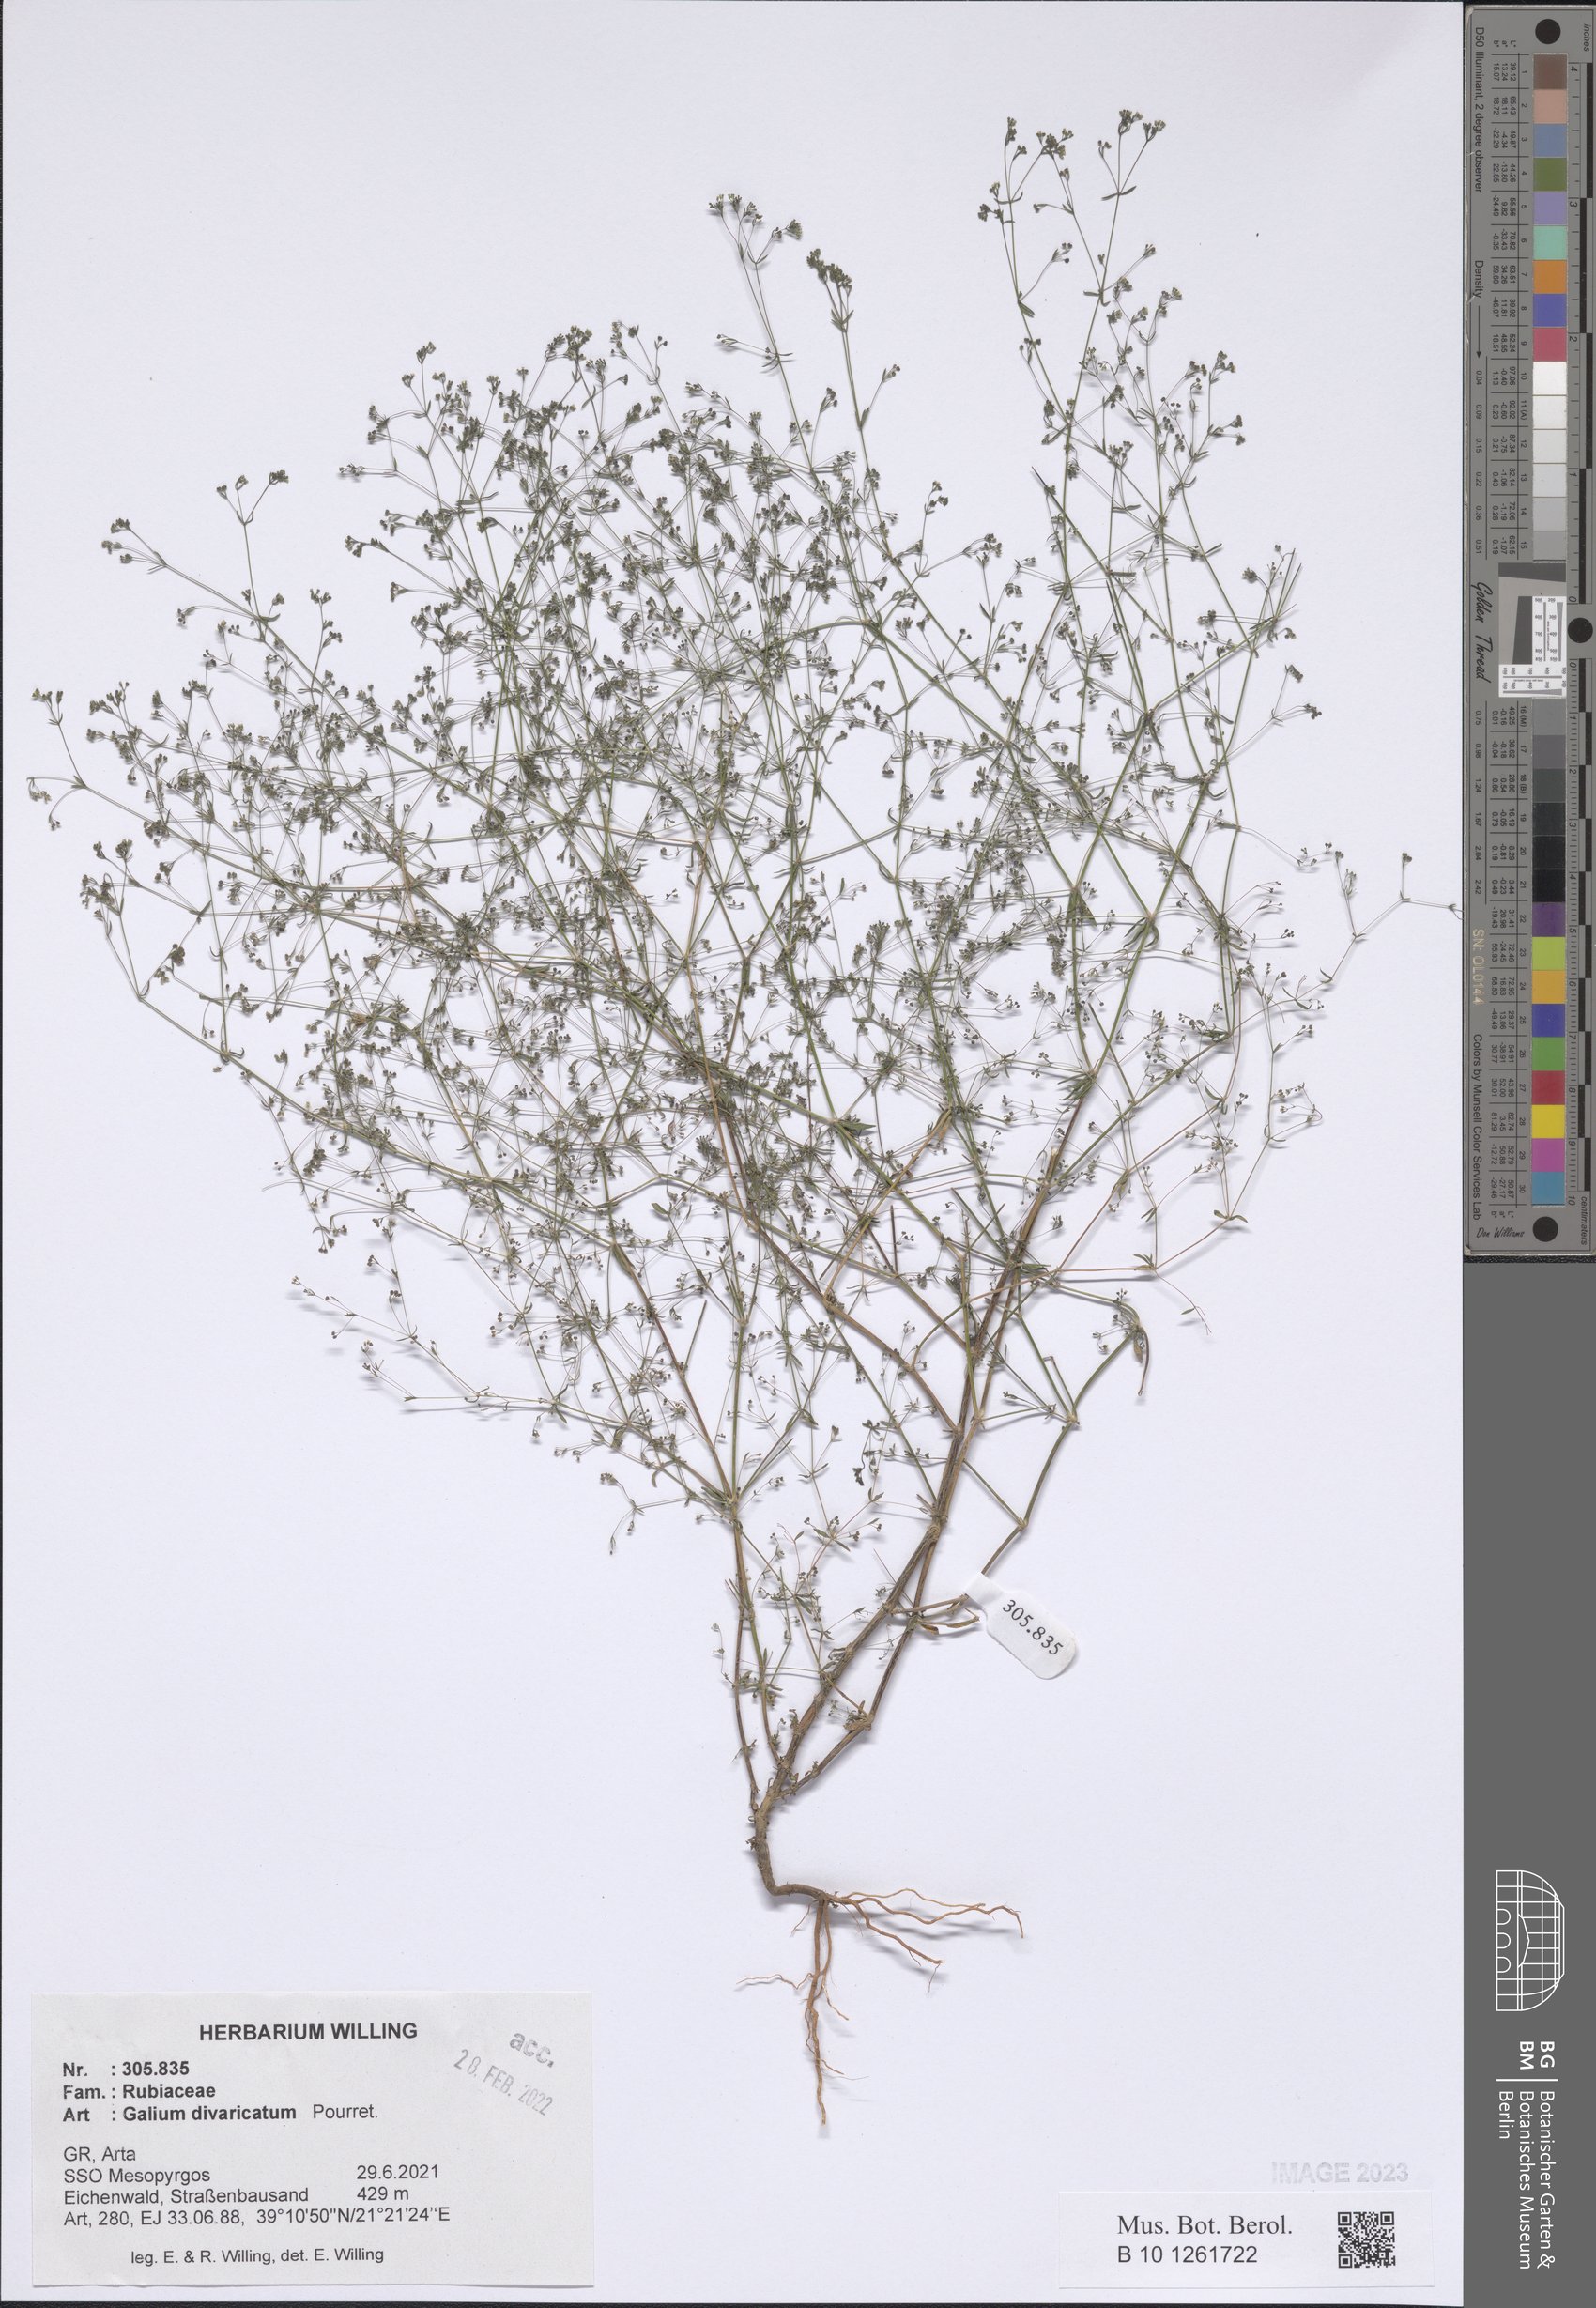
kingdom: Plantae
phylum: Tracheophyta
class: Magnoliopsida
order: Gentianales
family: Rubiaceae
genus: Galium
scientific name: Galium divaricatum
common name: Lamarck's bedstraw
